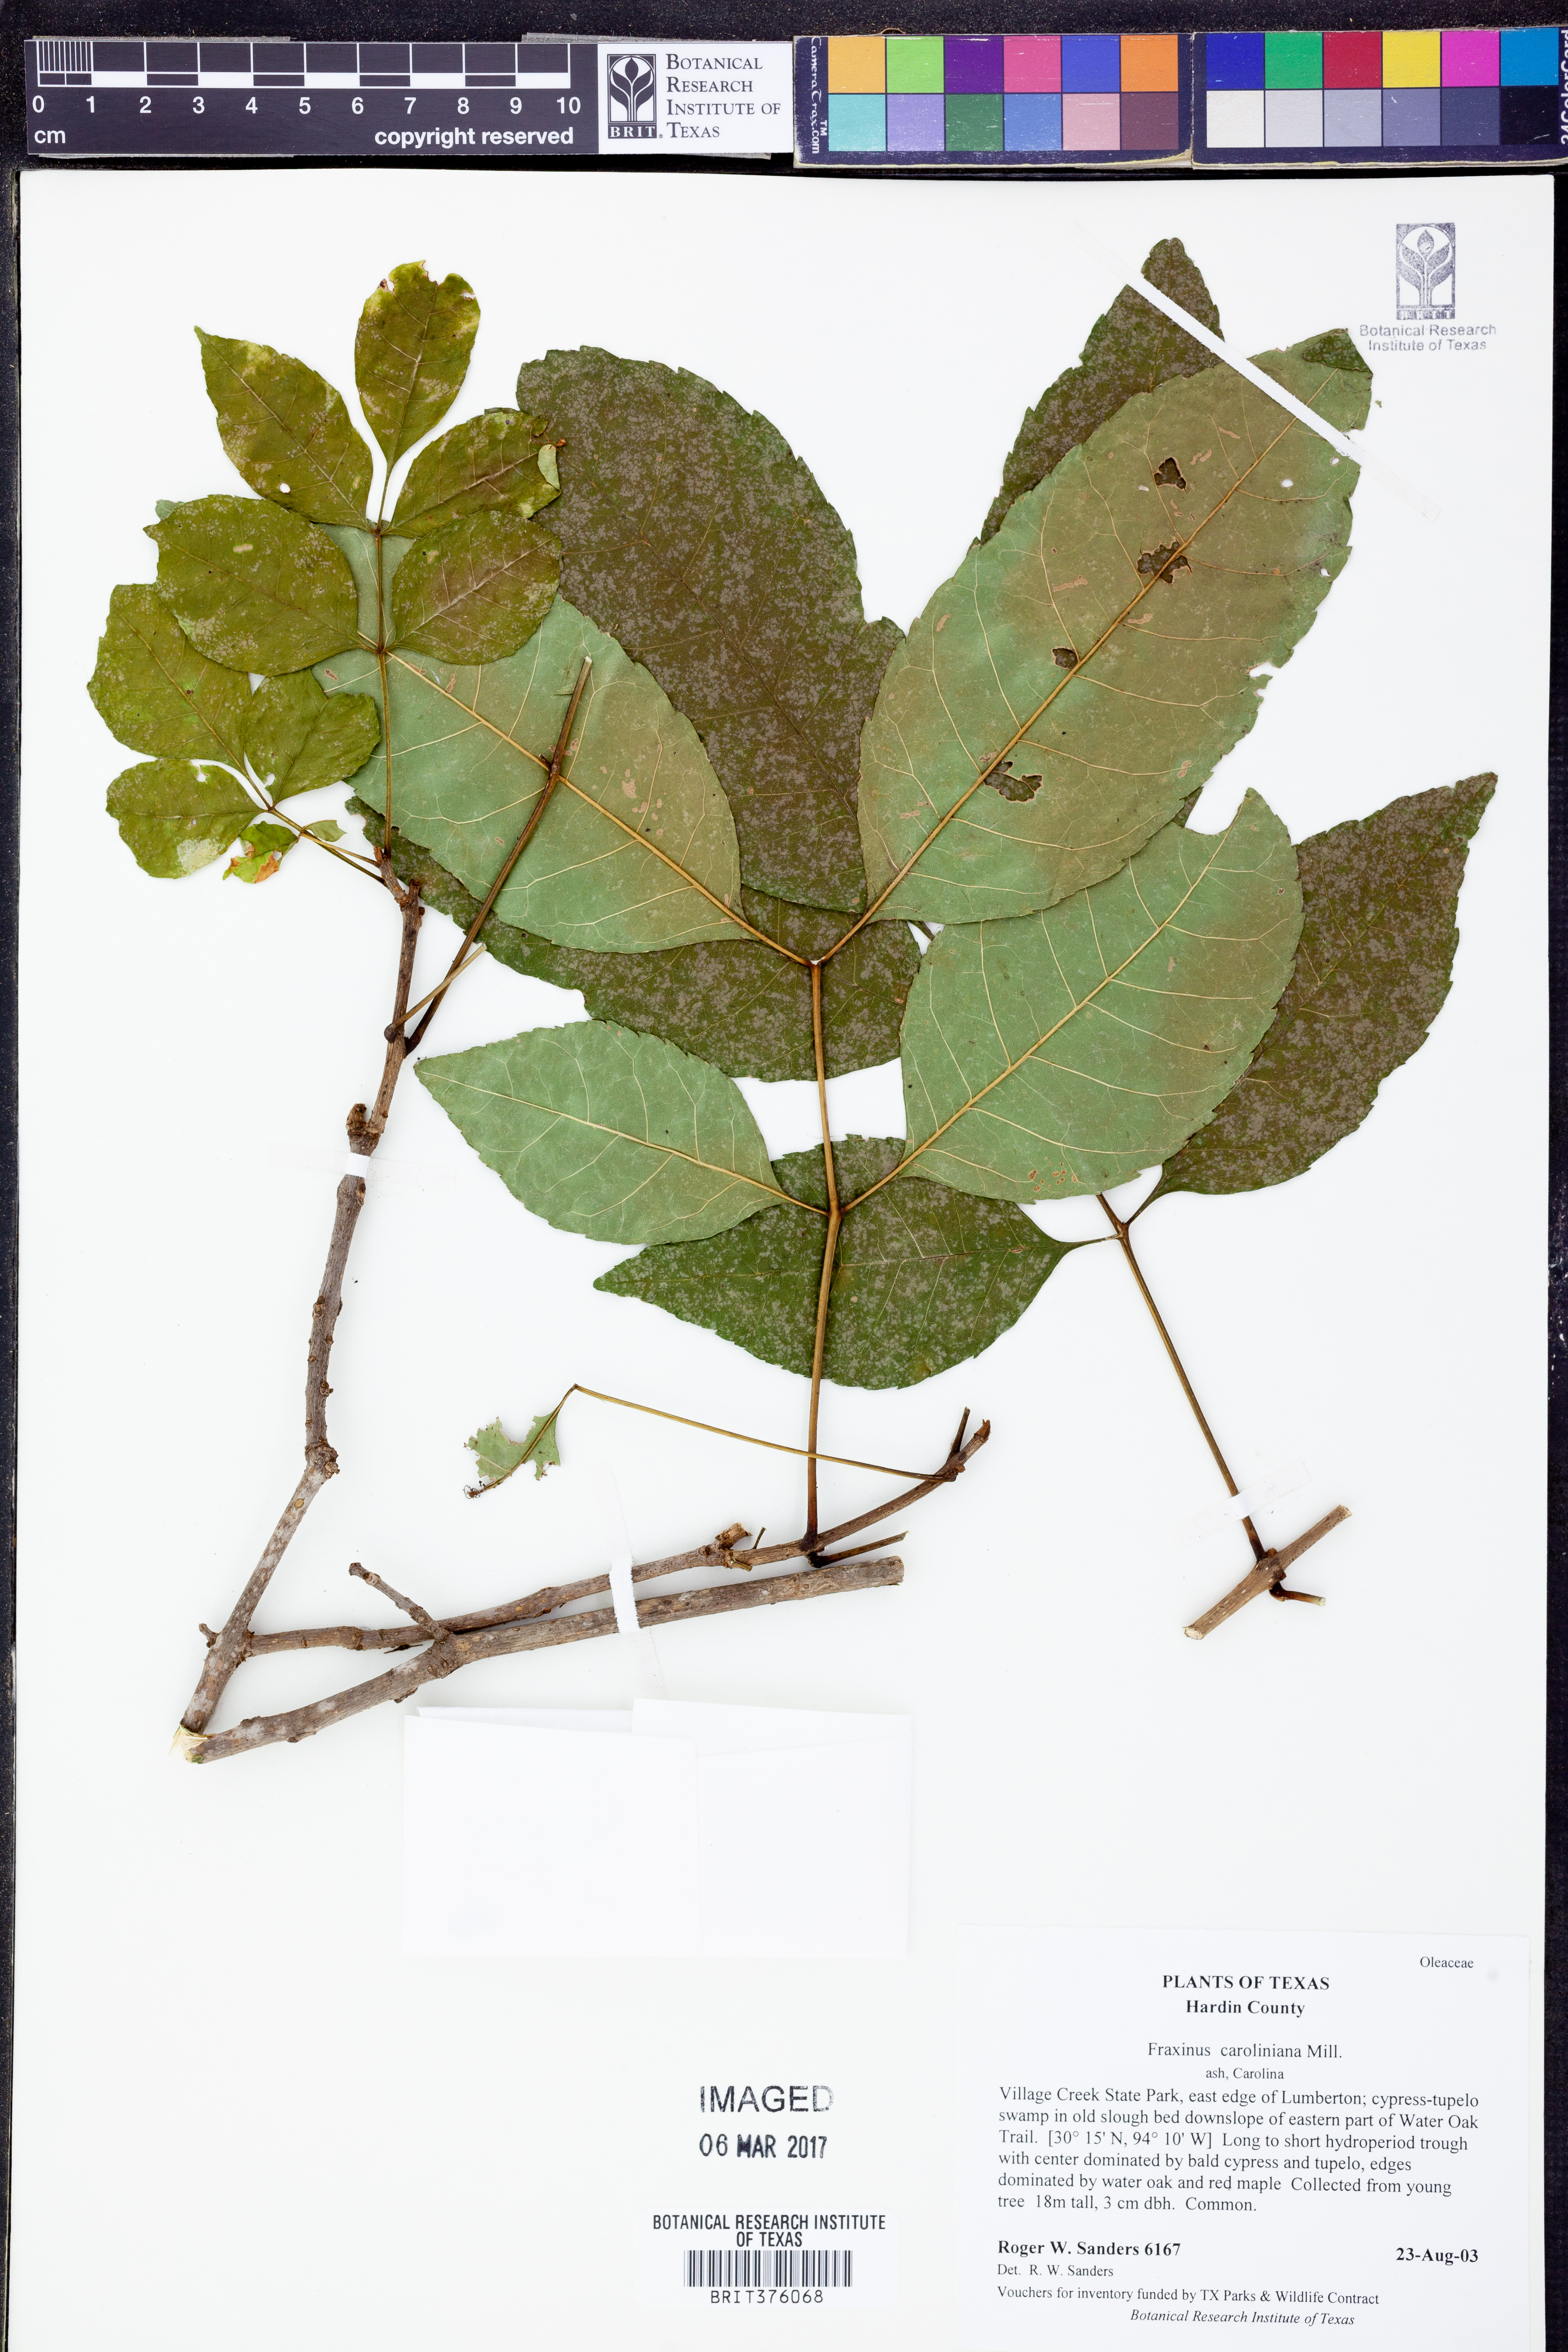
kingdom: Plantae
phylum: Tracheophyta
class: Magnoliopsida
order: Lamiales
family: Oleaceae
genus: Fraxinus
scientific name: Fraxinus caroliniana
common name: Carolina ash
